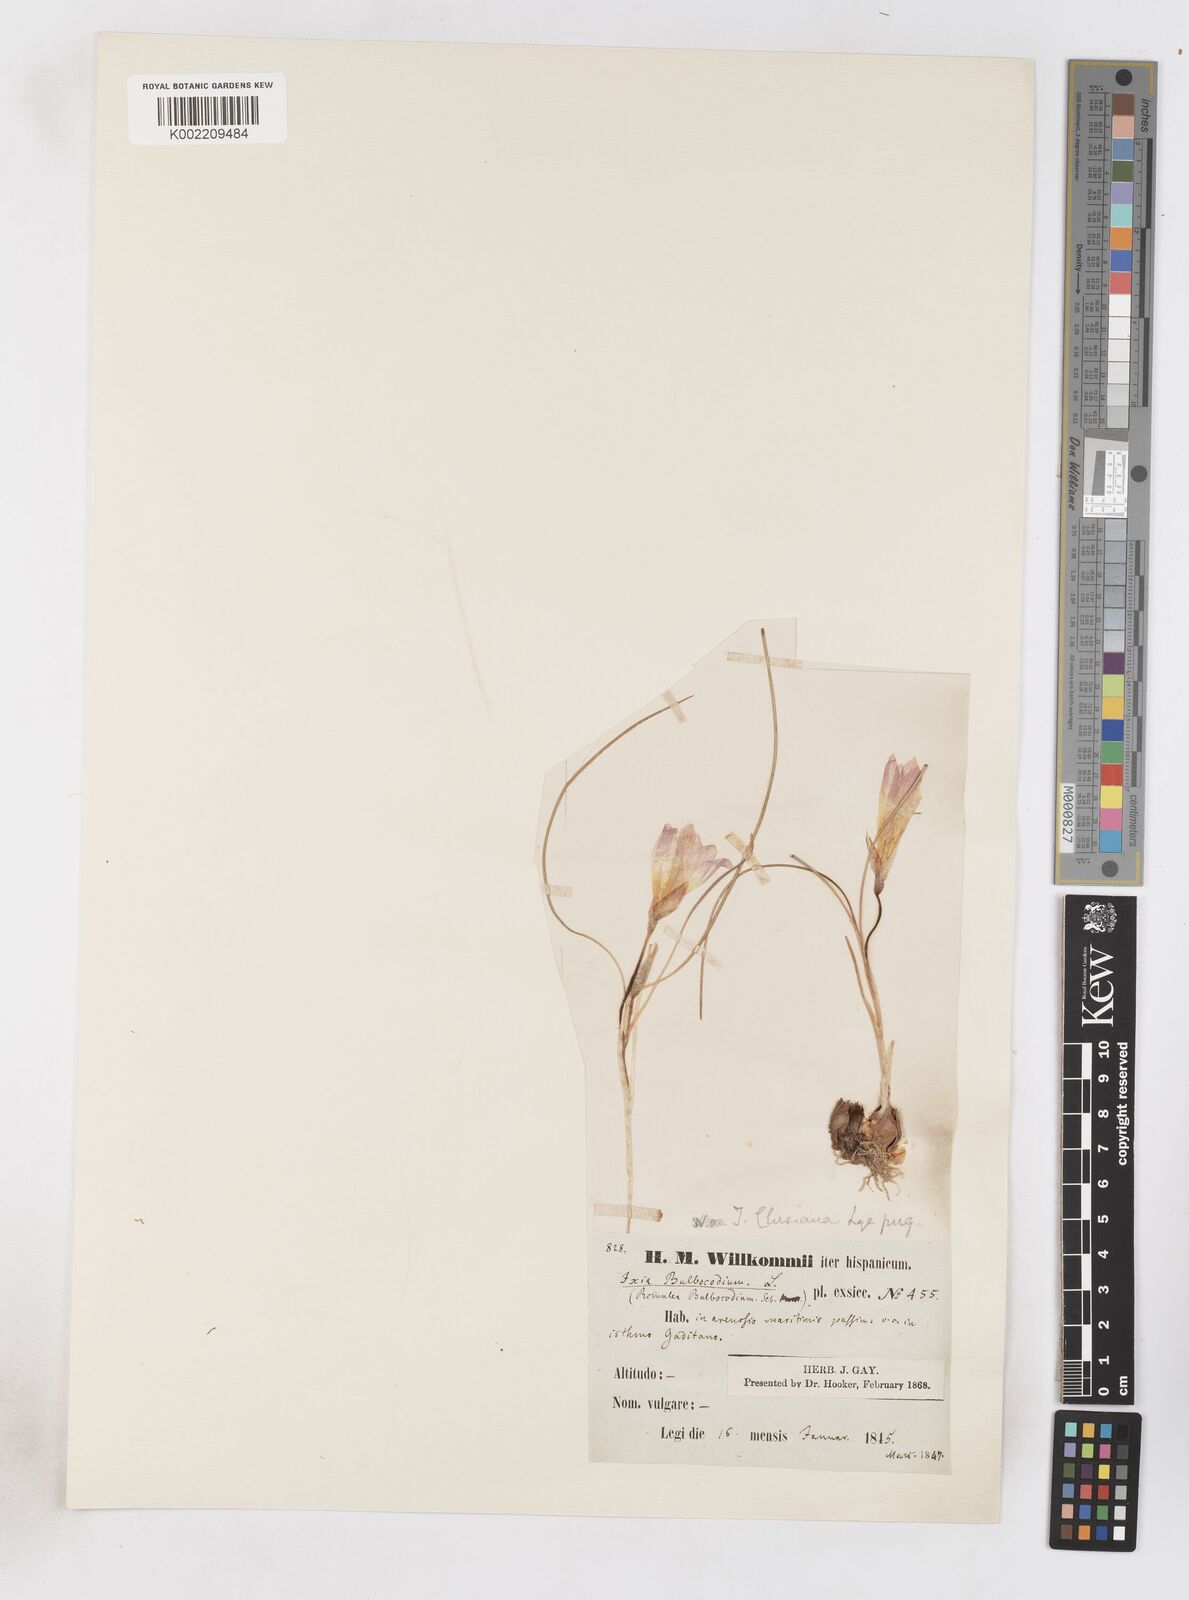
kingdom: Plantae
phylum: Tracheophyta
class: Liliopsida
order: Asparagales
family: Iridaceae
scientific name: Iridaceae
